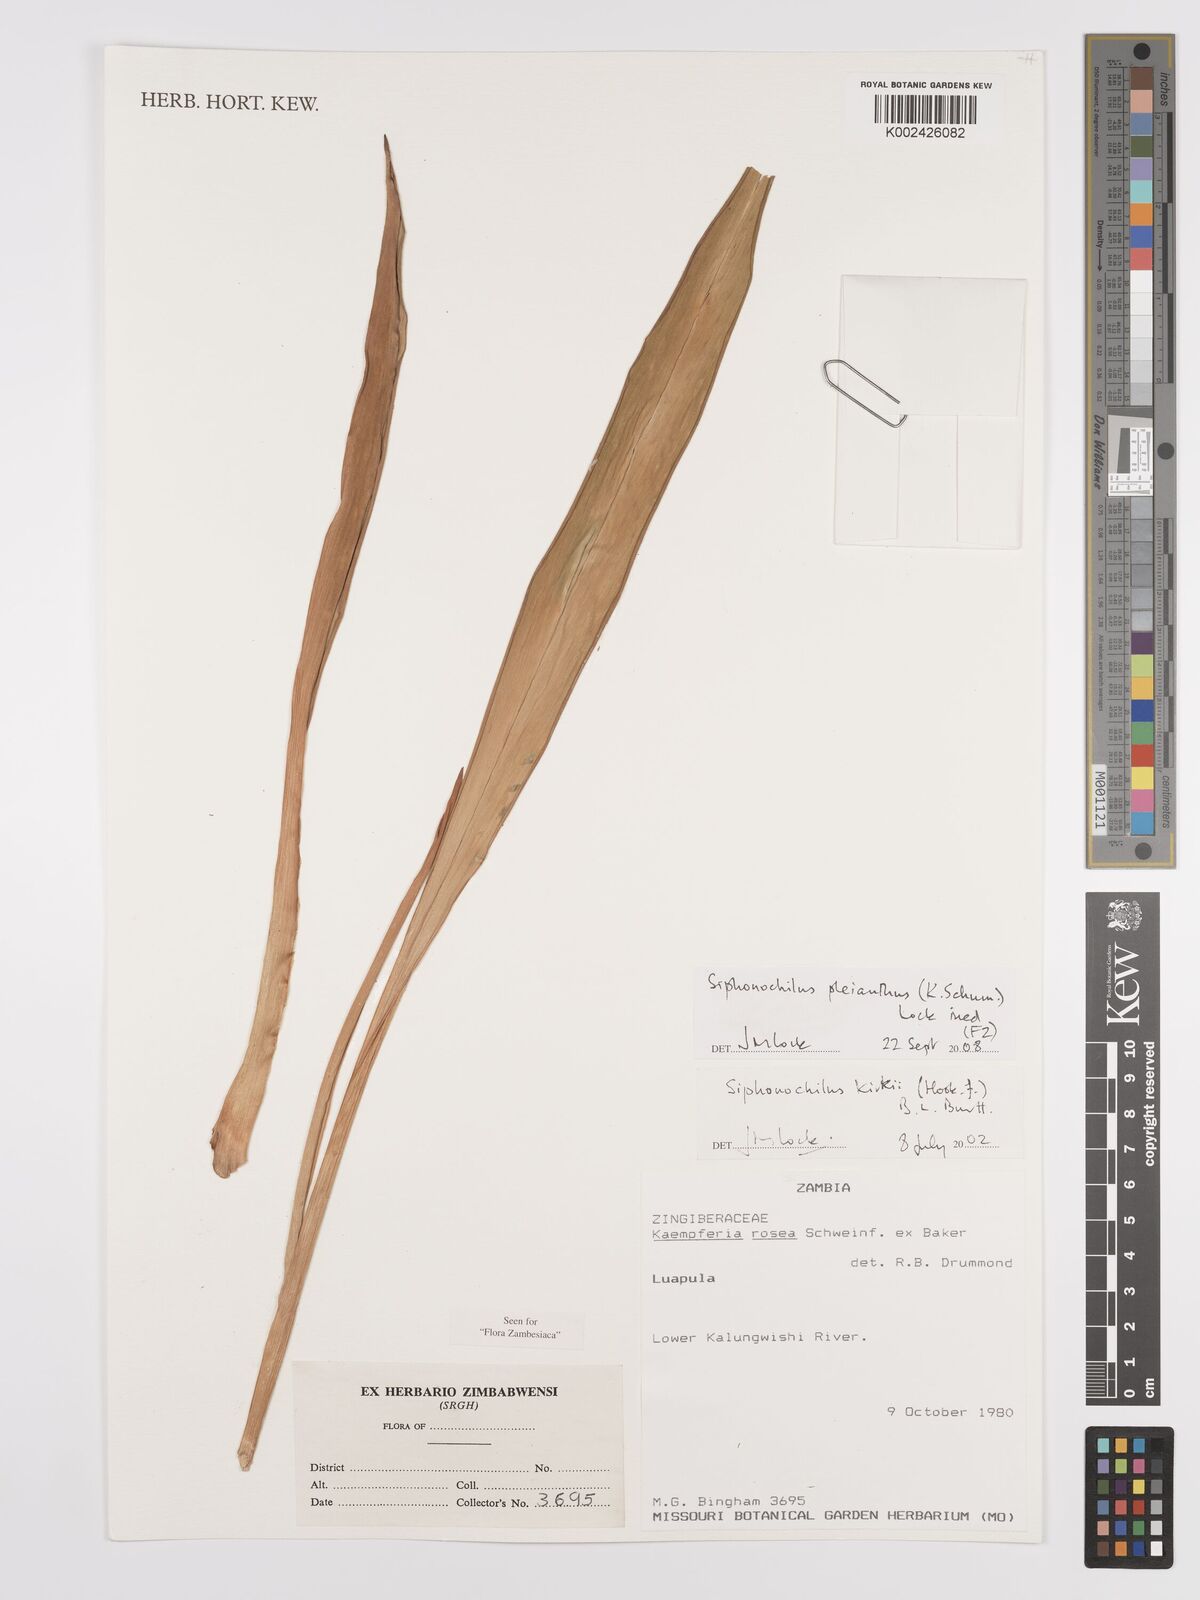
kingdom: Plantae
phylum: Tracheophyta
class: Liliopsida
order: Zingiberales
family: Zingiberaceae
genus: Siphonochilus
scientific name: Siphonochilus pleianthus
